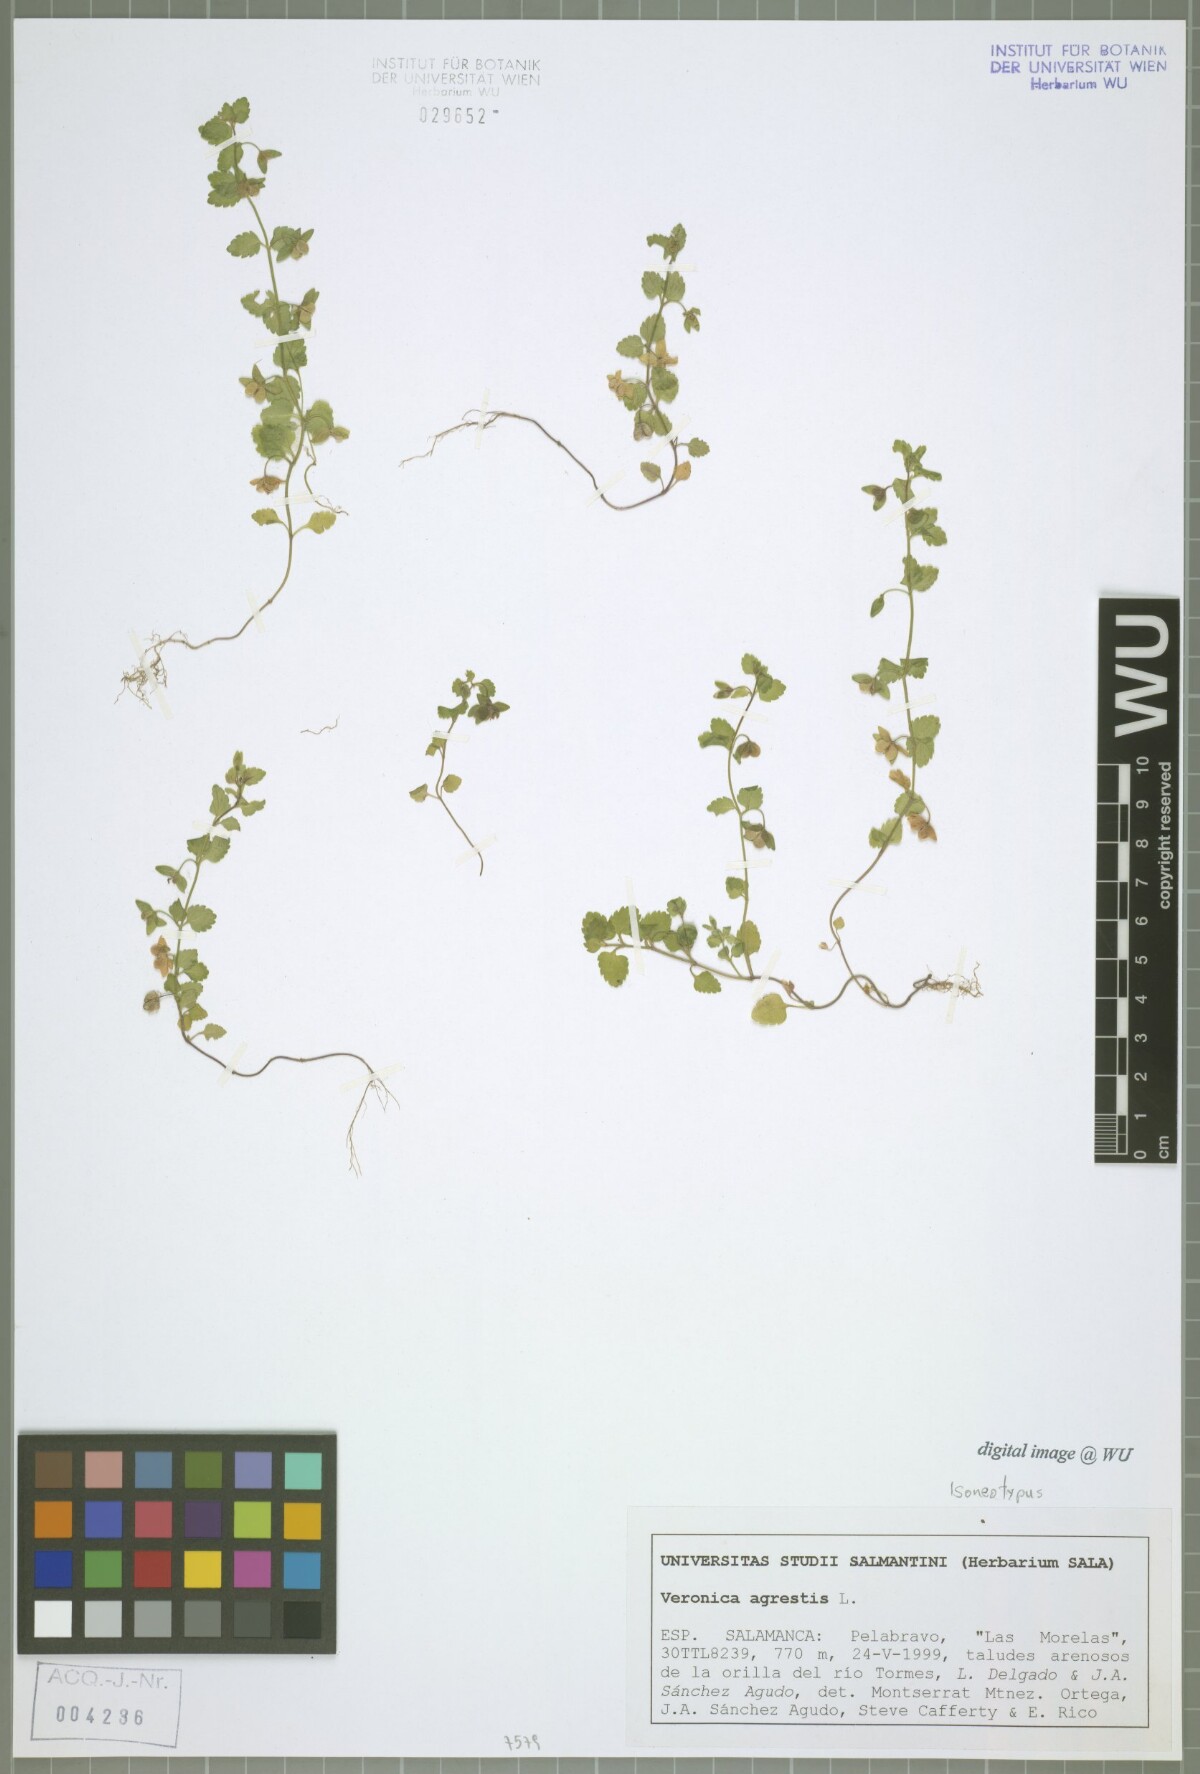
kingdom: Plantae
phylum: Tracheophyta
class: Magnoliopsida
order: Lamiales
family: Plantaginaceae
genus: Veronica
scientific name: Veronica agrestis
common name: Green field-speedwell
